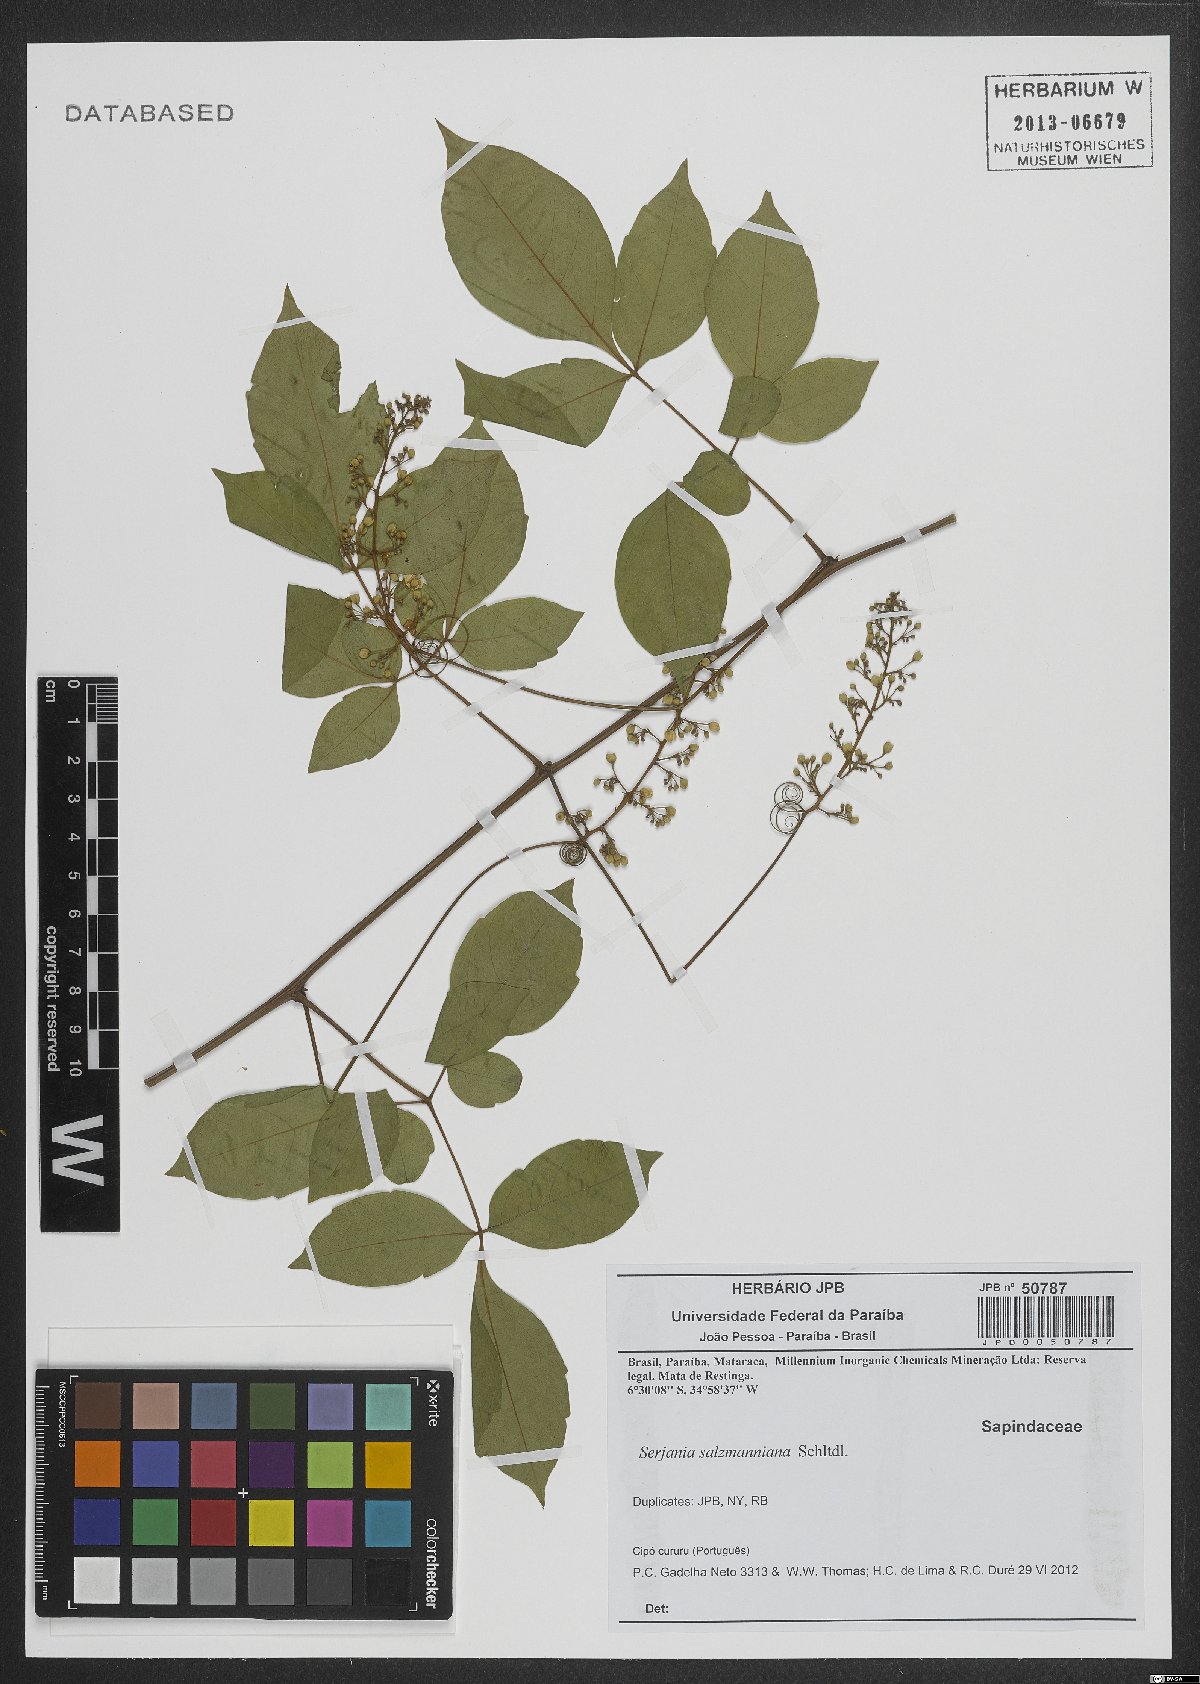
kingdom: Plantae
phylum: Tracheophyta
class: Magnoliopsida
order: Sapindales
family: Sapindaceae
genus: Serjania
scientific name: Serjania salzmanniana
